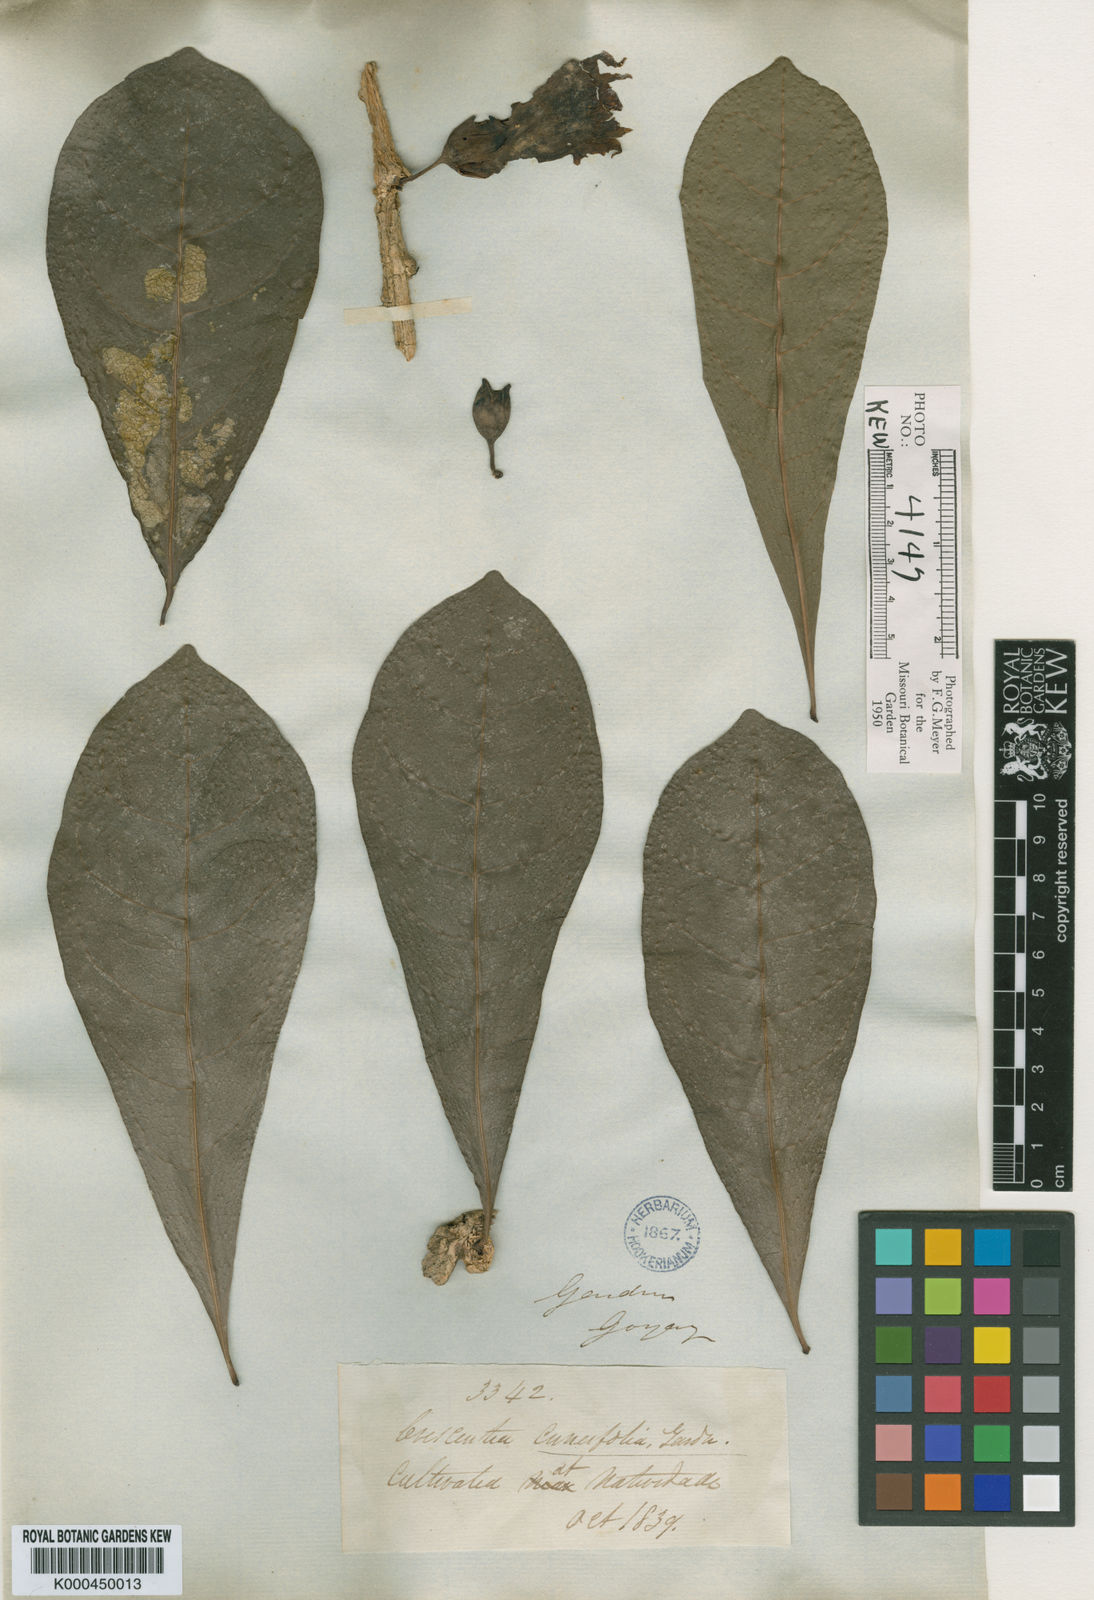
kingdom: Plantae
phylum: Tracheophyta
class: Magnoliopsida
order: Lamiales
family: Bignoniaceae
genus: Crescentia
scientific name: Crescentia cujete
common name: Calabash
